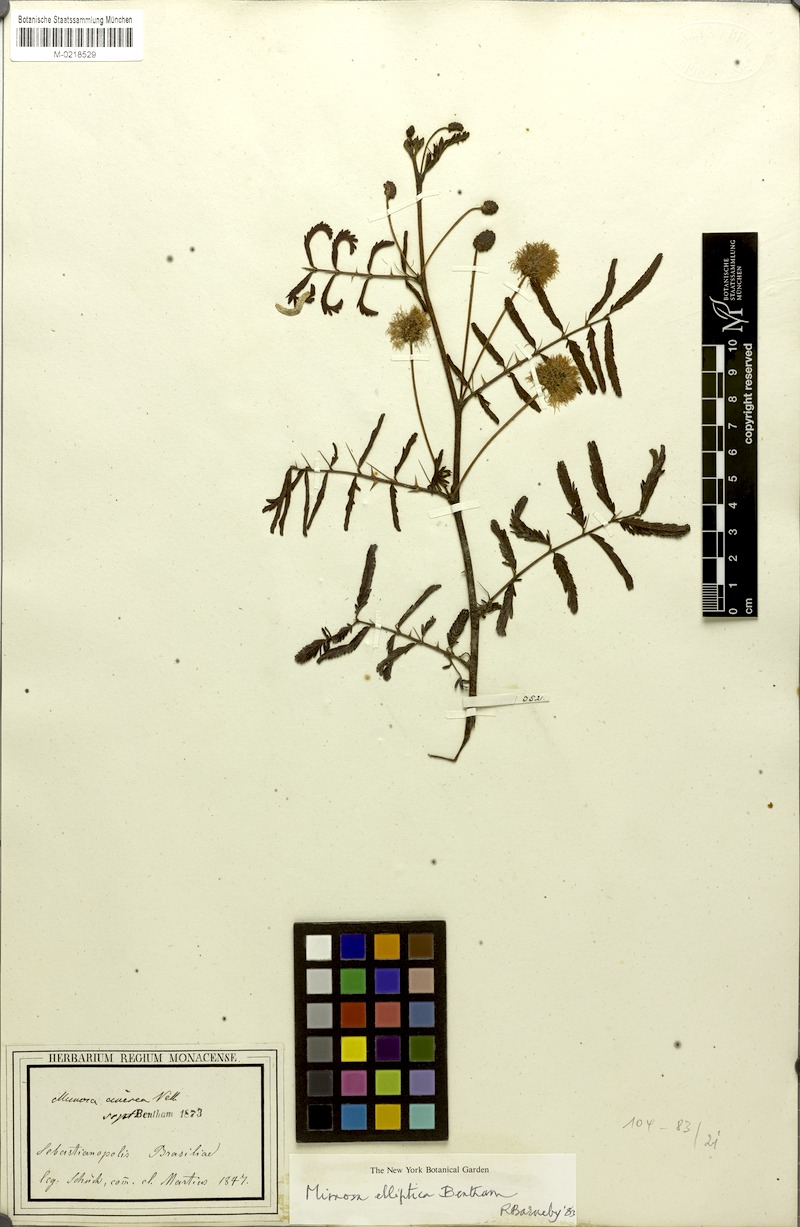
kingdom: Plantae
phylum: Tracheophyta
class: Magnoliopsida
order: Fabales
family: Fabaceae
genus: Mimosa
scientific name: Mimosa elliptica
